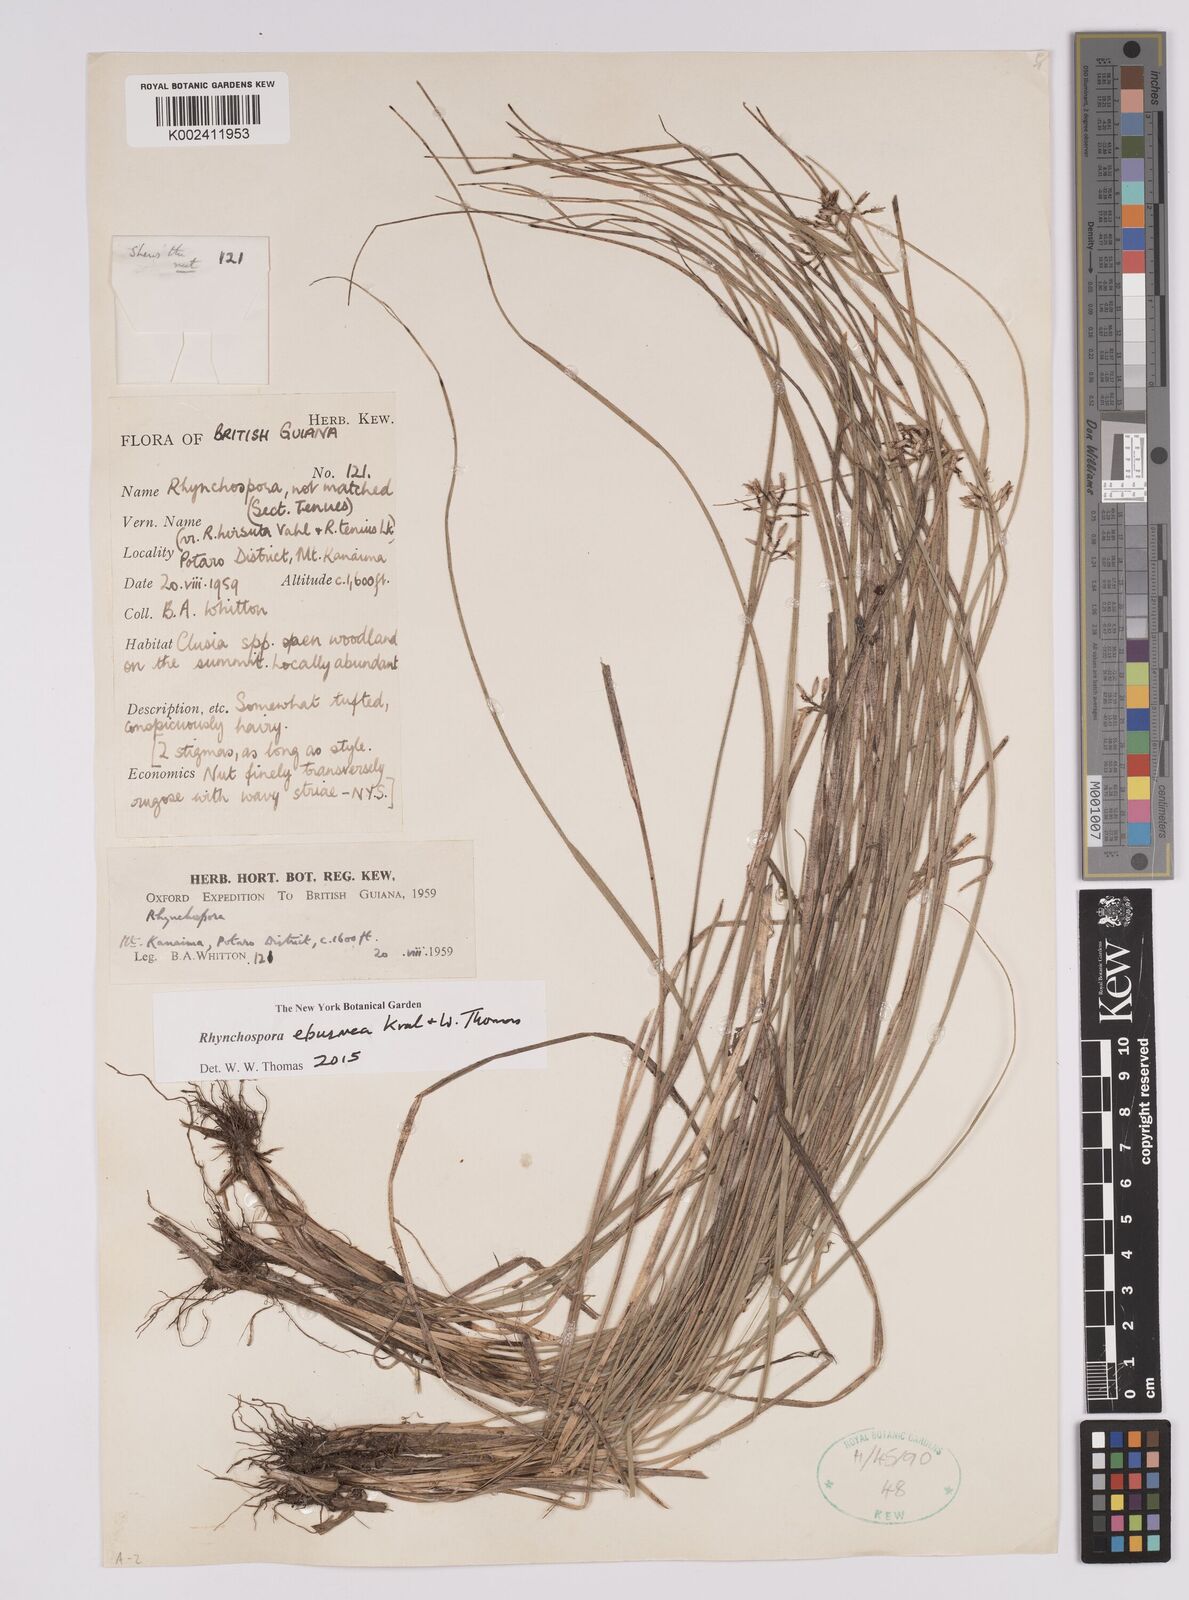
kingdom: Plantae
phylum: Tracheophyta
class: Liliopsida
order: Poales
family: Cyperaceae
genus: Rhynchospora
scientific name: Rhynchospora eburnea
